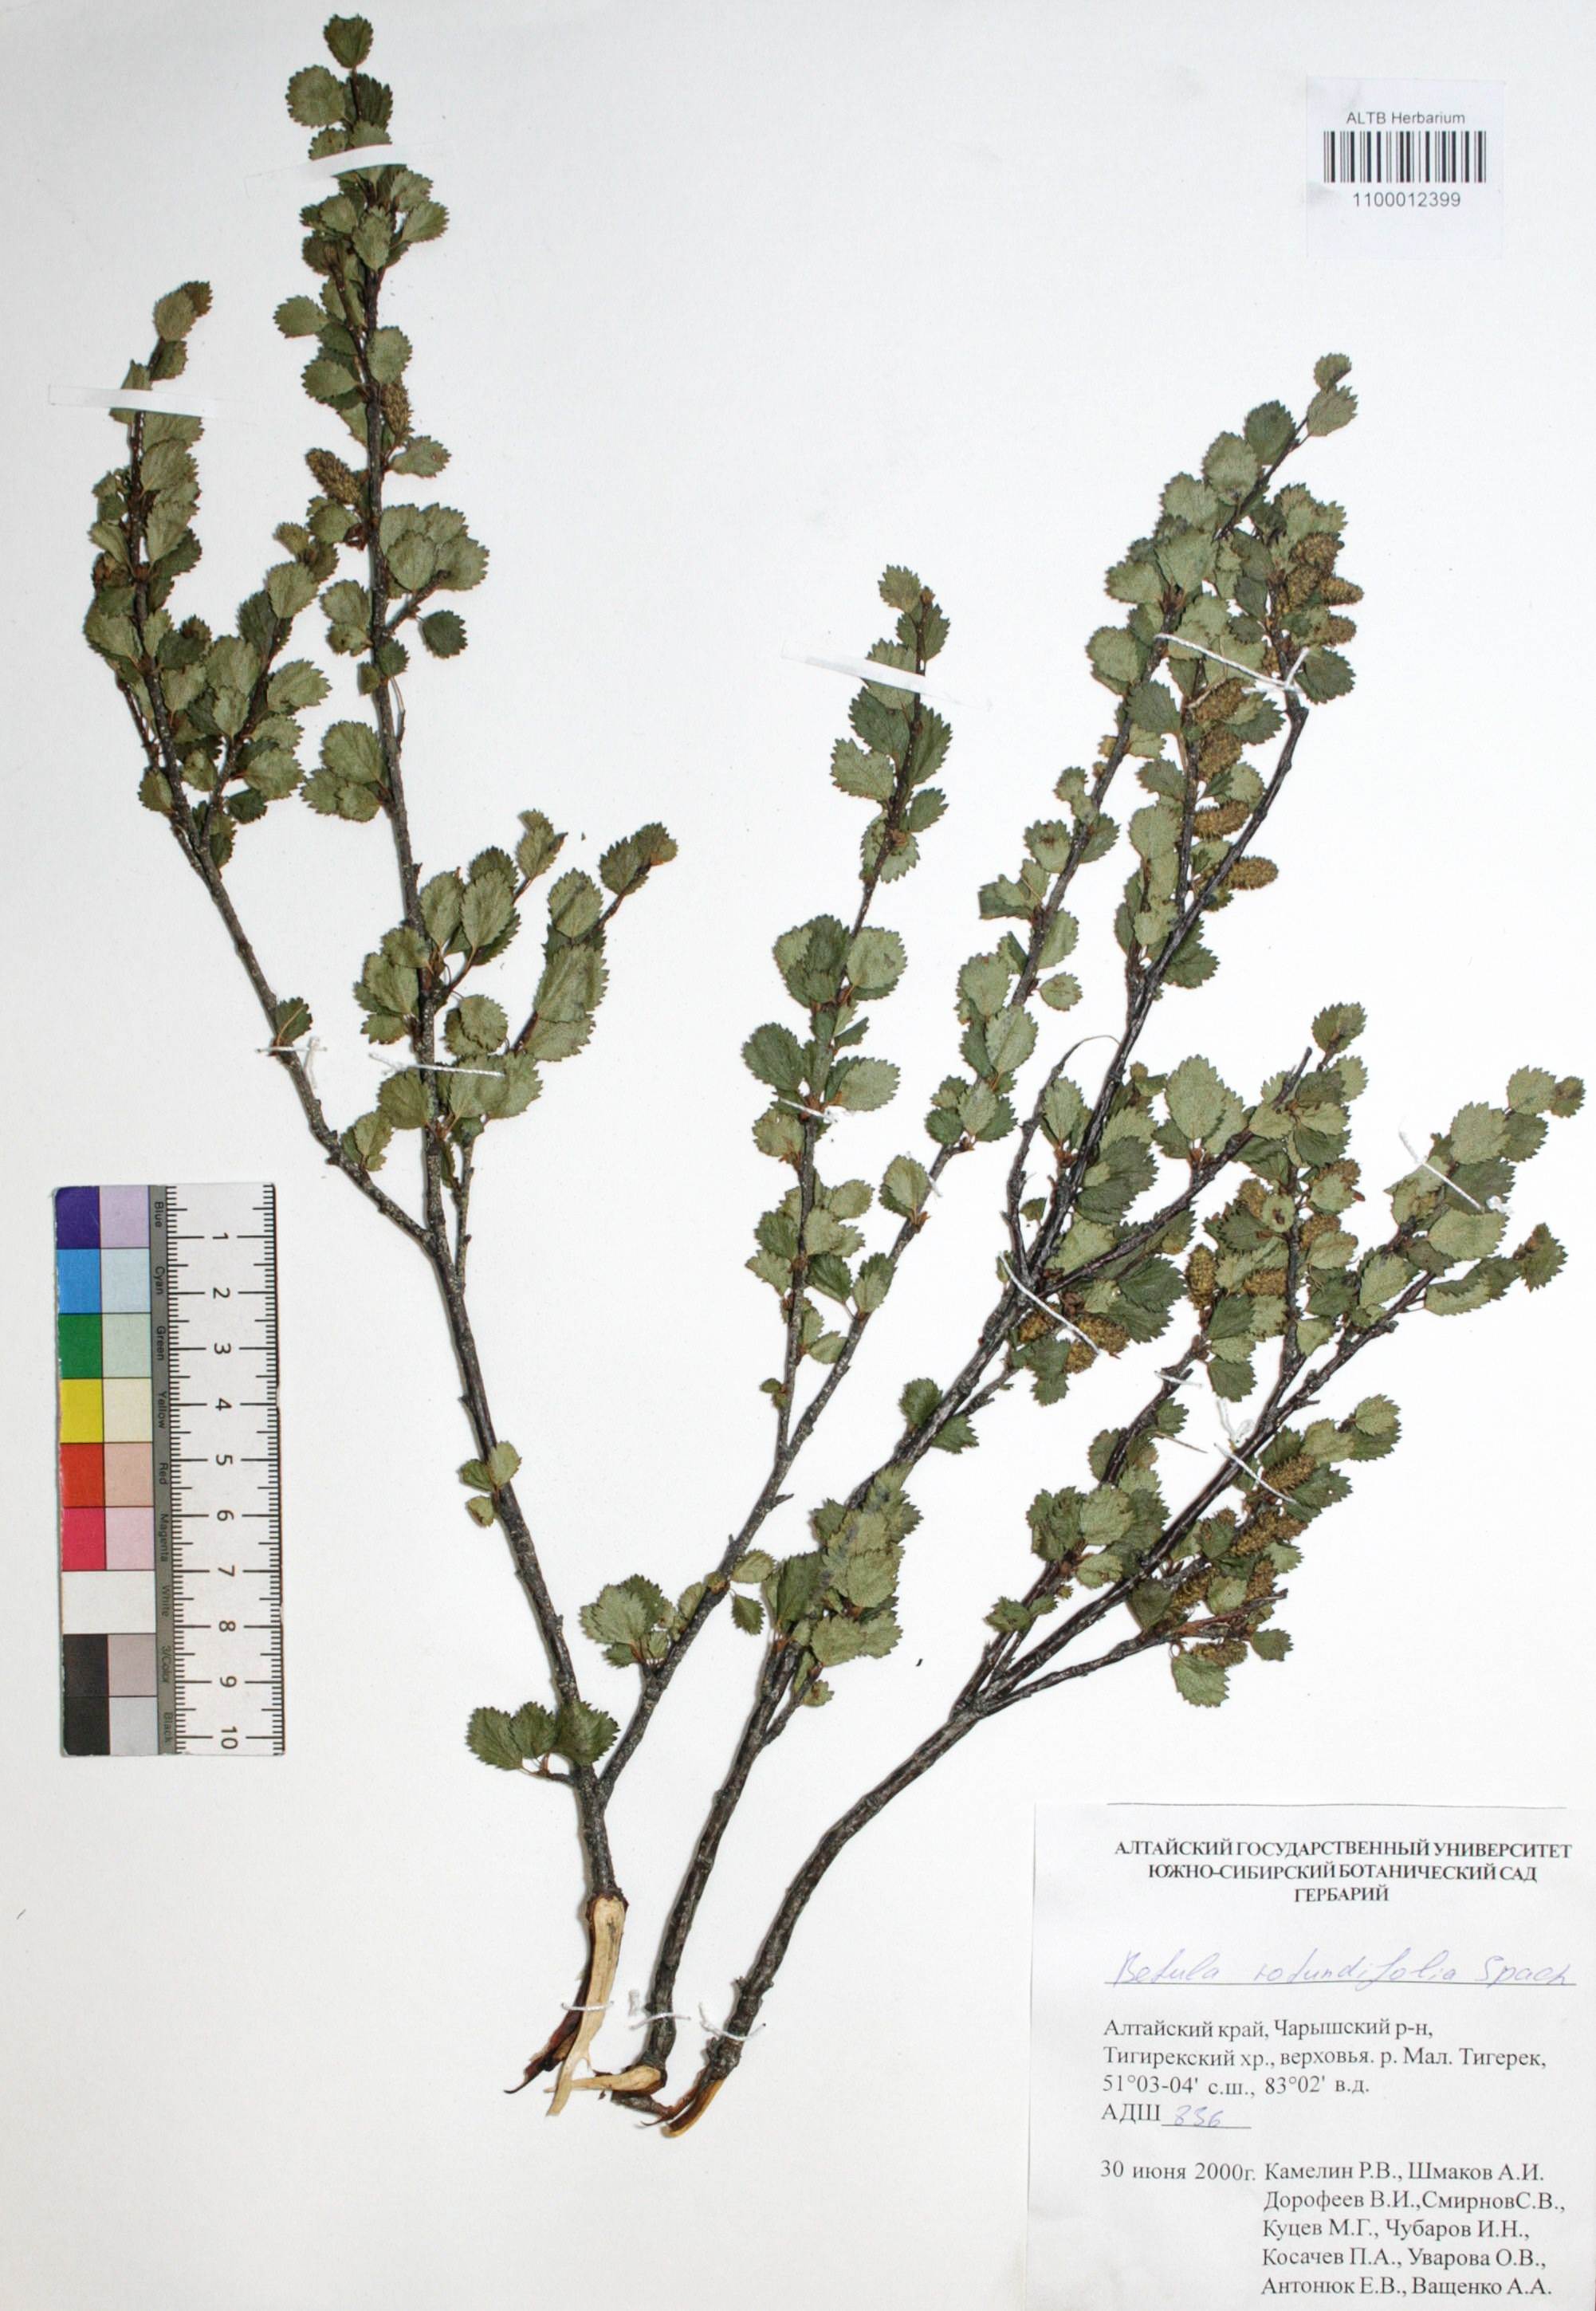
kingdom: Plantae
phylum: Tracheophyta
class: Magnoliopsida
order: Fagales
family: Betulaceae
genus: Betula
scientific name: Betula glandulosa
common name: Dwarf birch
